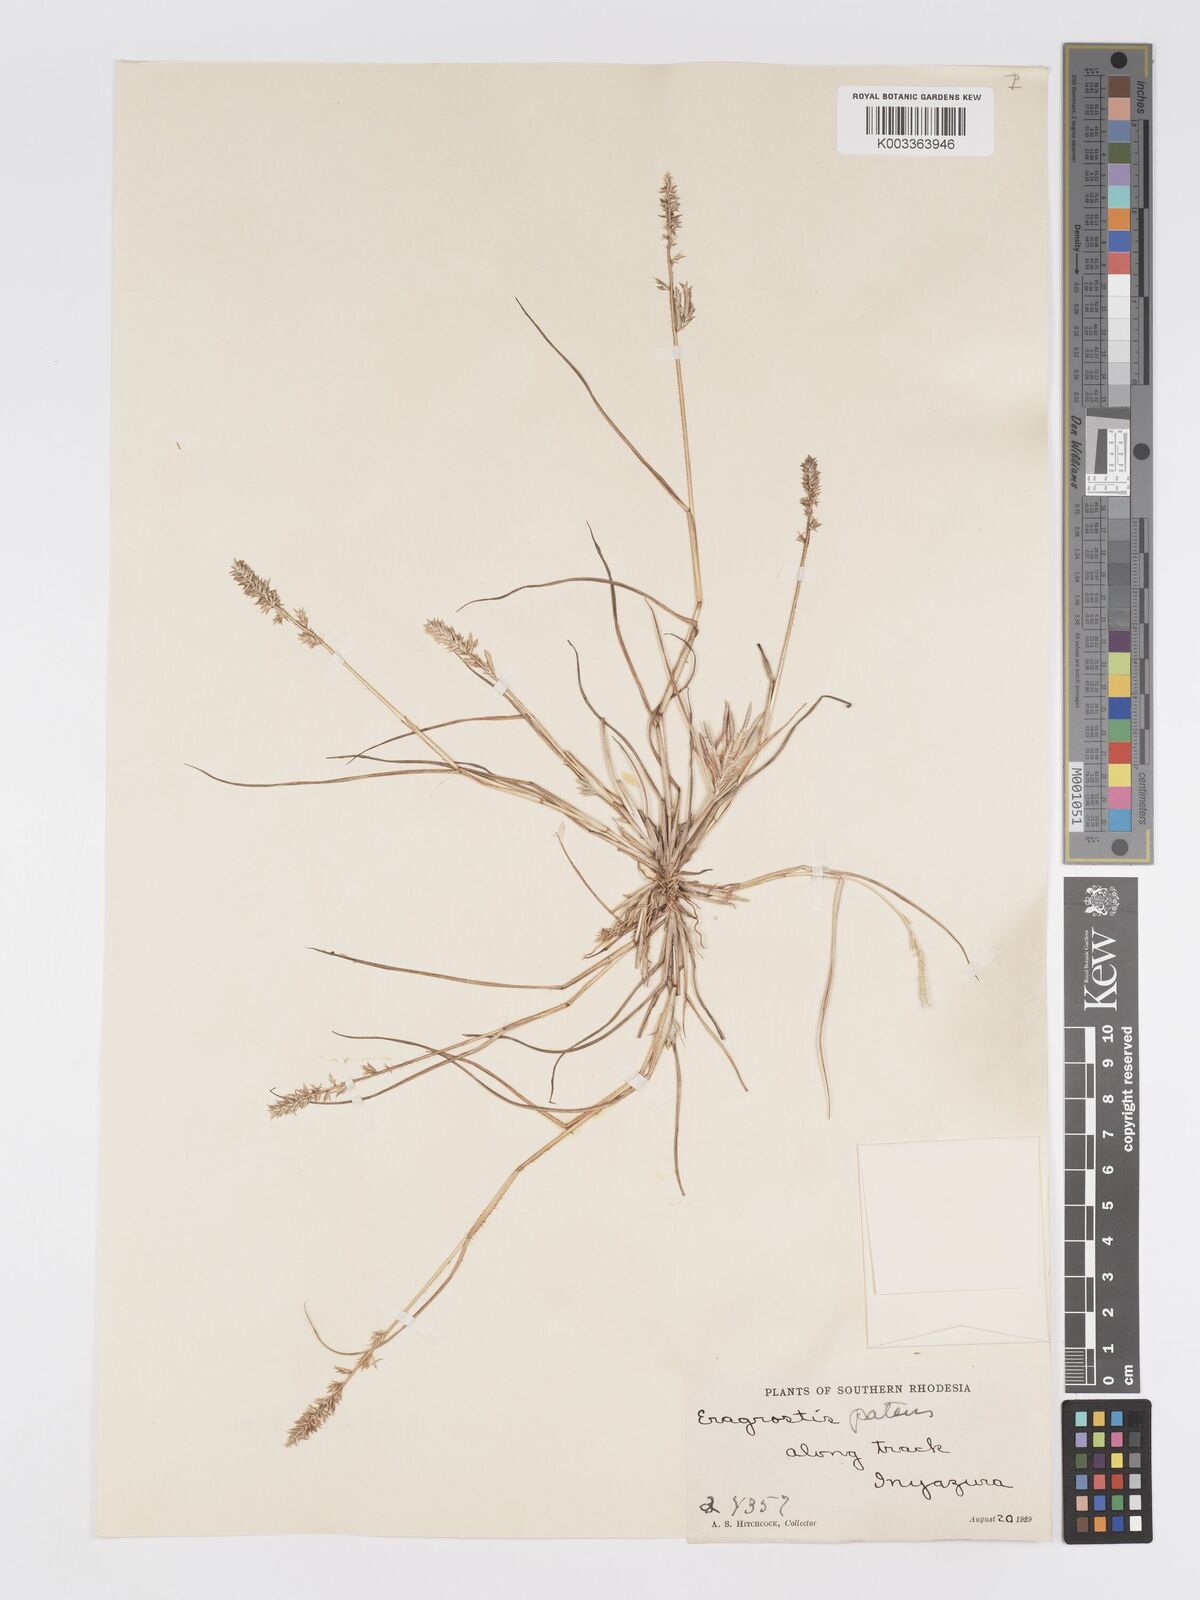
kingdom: Plantae
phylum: Tracheophyta
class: Liliopsida
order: Poales
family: Poaceae
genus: Eragrostis
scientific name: Eragrostis patens
